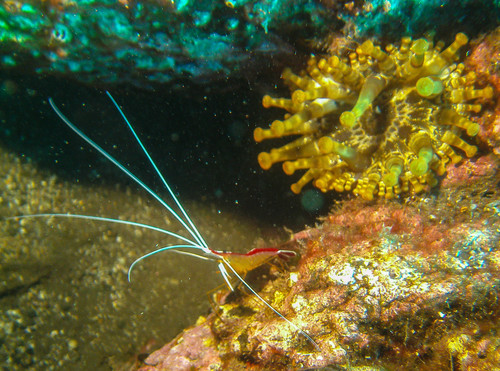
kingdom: Animalia
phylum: Arthropoda
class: Malacostraca
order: Decapoda
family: Lysmatidae
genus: Lysmata
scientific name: Lysmata grabhami
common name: Scarlet-striped cleaning shrimp
